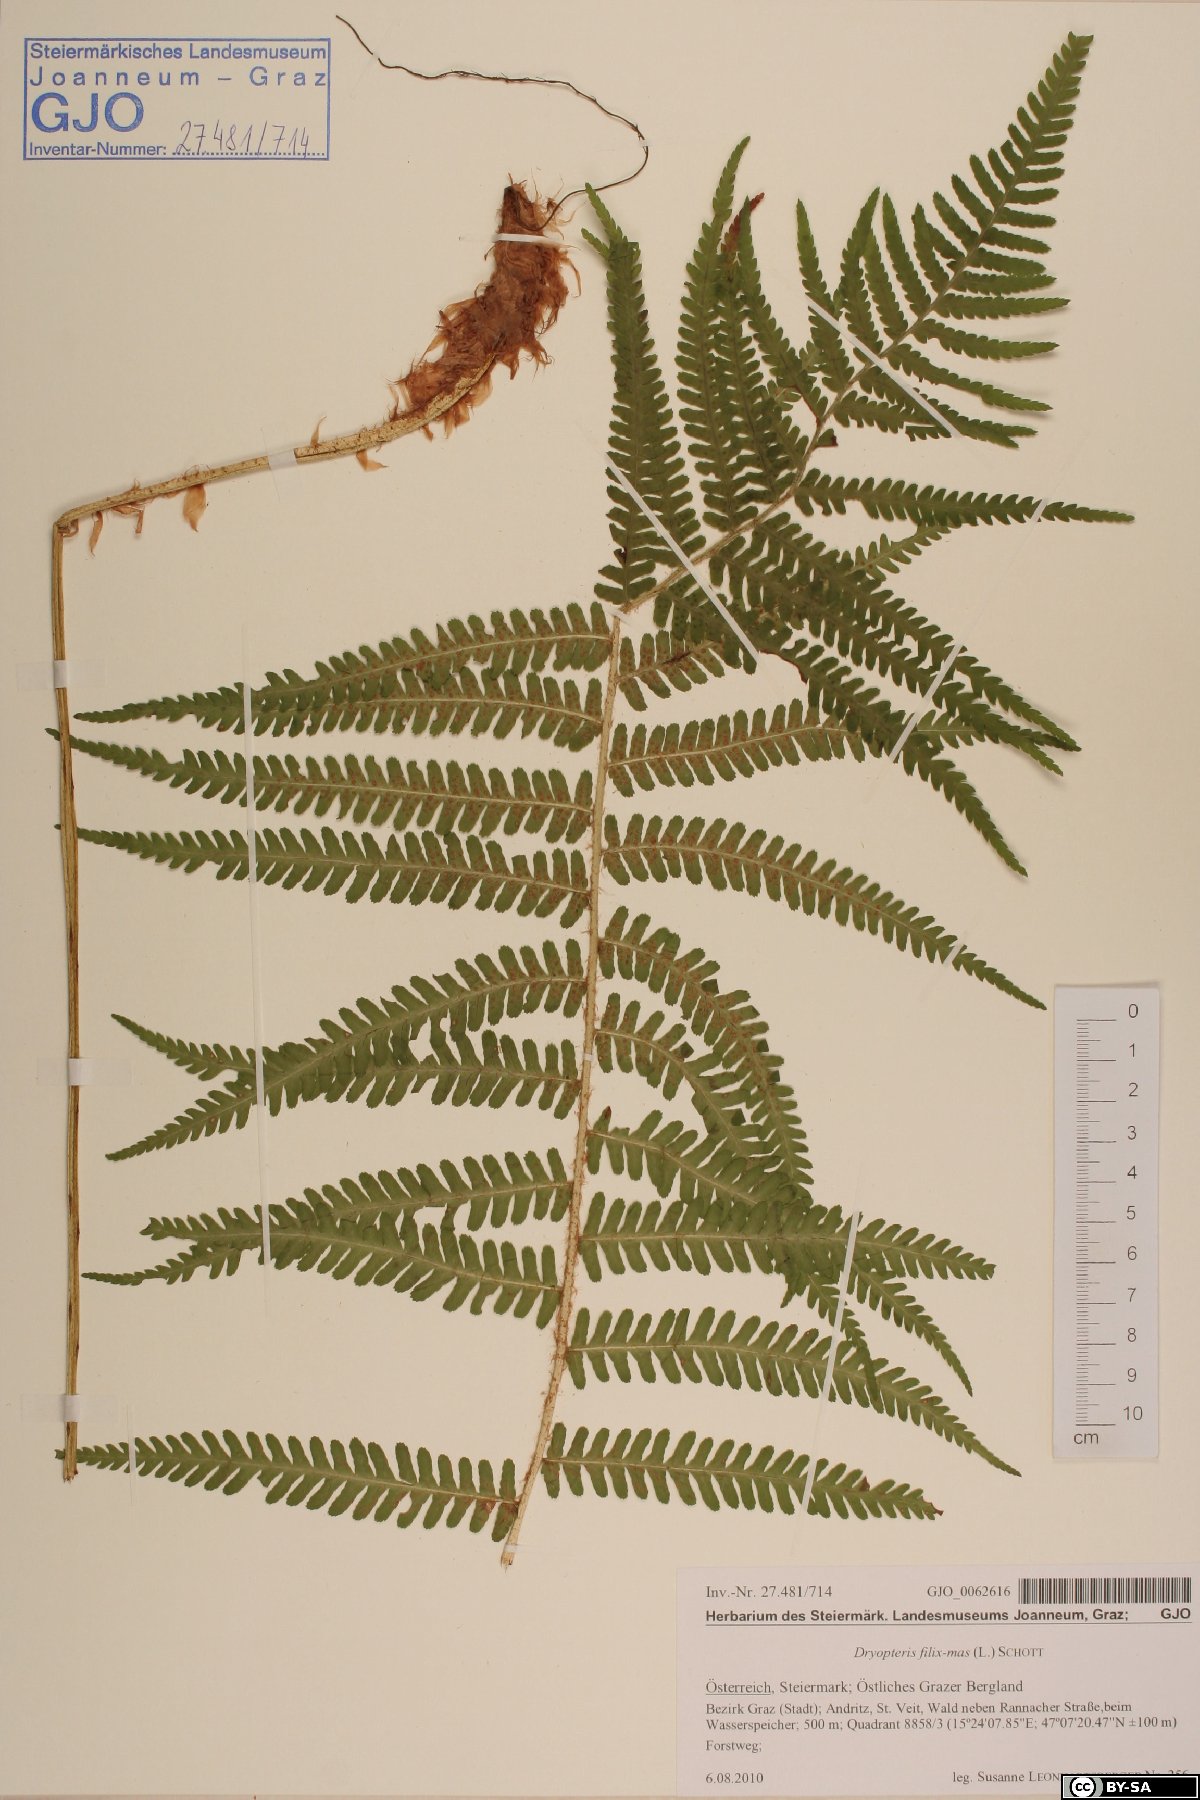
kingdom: Plantae
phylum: Tracheophyta
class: Polypodiopsida
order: Polypodiales
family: Dryopteridaceae
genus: Dryopteris
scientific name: Dryopteris affinis
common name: Scaly male fern
